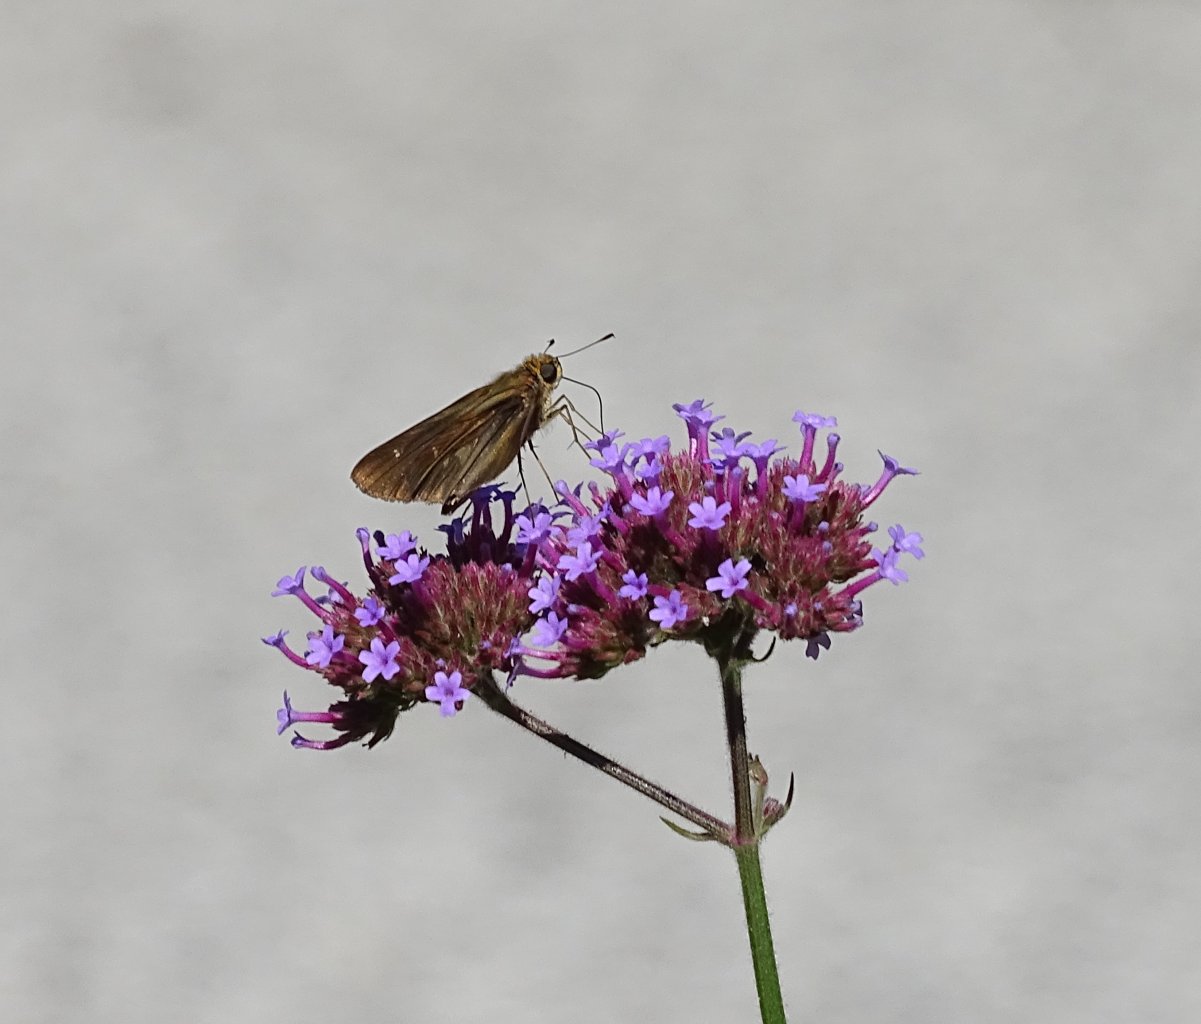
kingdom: Animalia
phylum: Arthropoda
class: Insecta
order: Lepidoptera
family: Hesperiidae
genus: Panoquina
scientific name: Panoquina ocola
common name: Ocola Skipper
